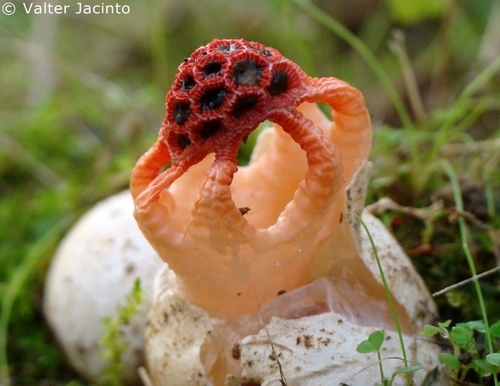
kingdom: Fungi
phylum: Basidiomycota
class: Agaricomycetes
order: Phallales
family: Phallaceae
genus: Colus
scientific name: Colus hirudinosus
